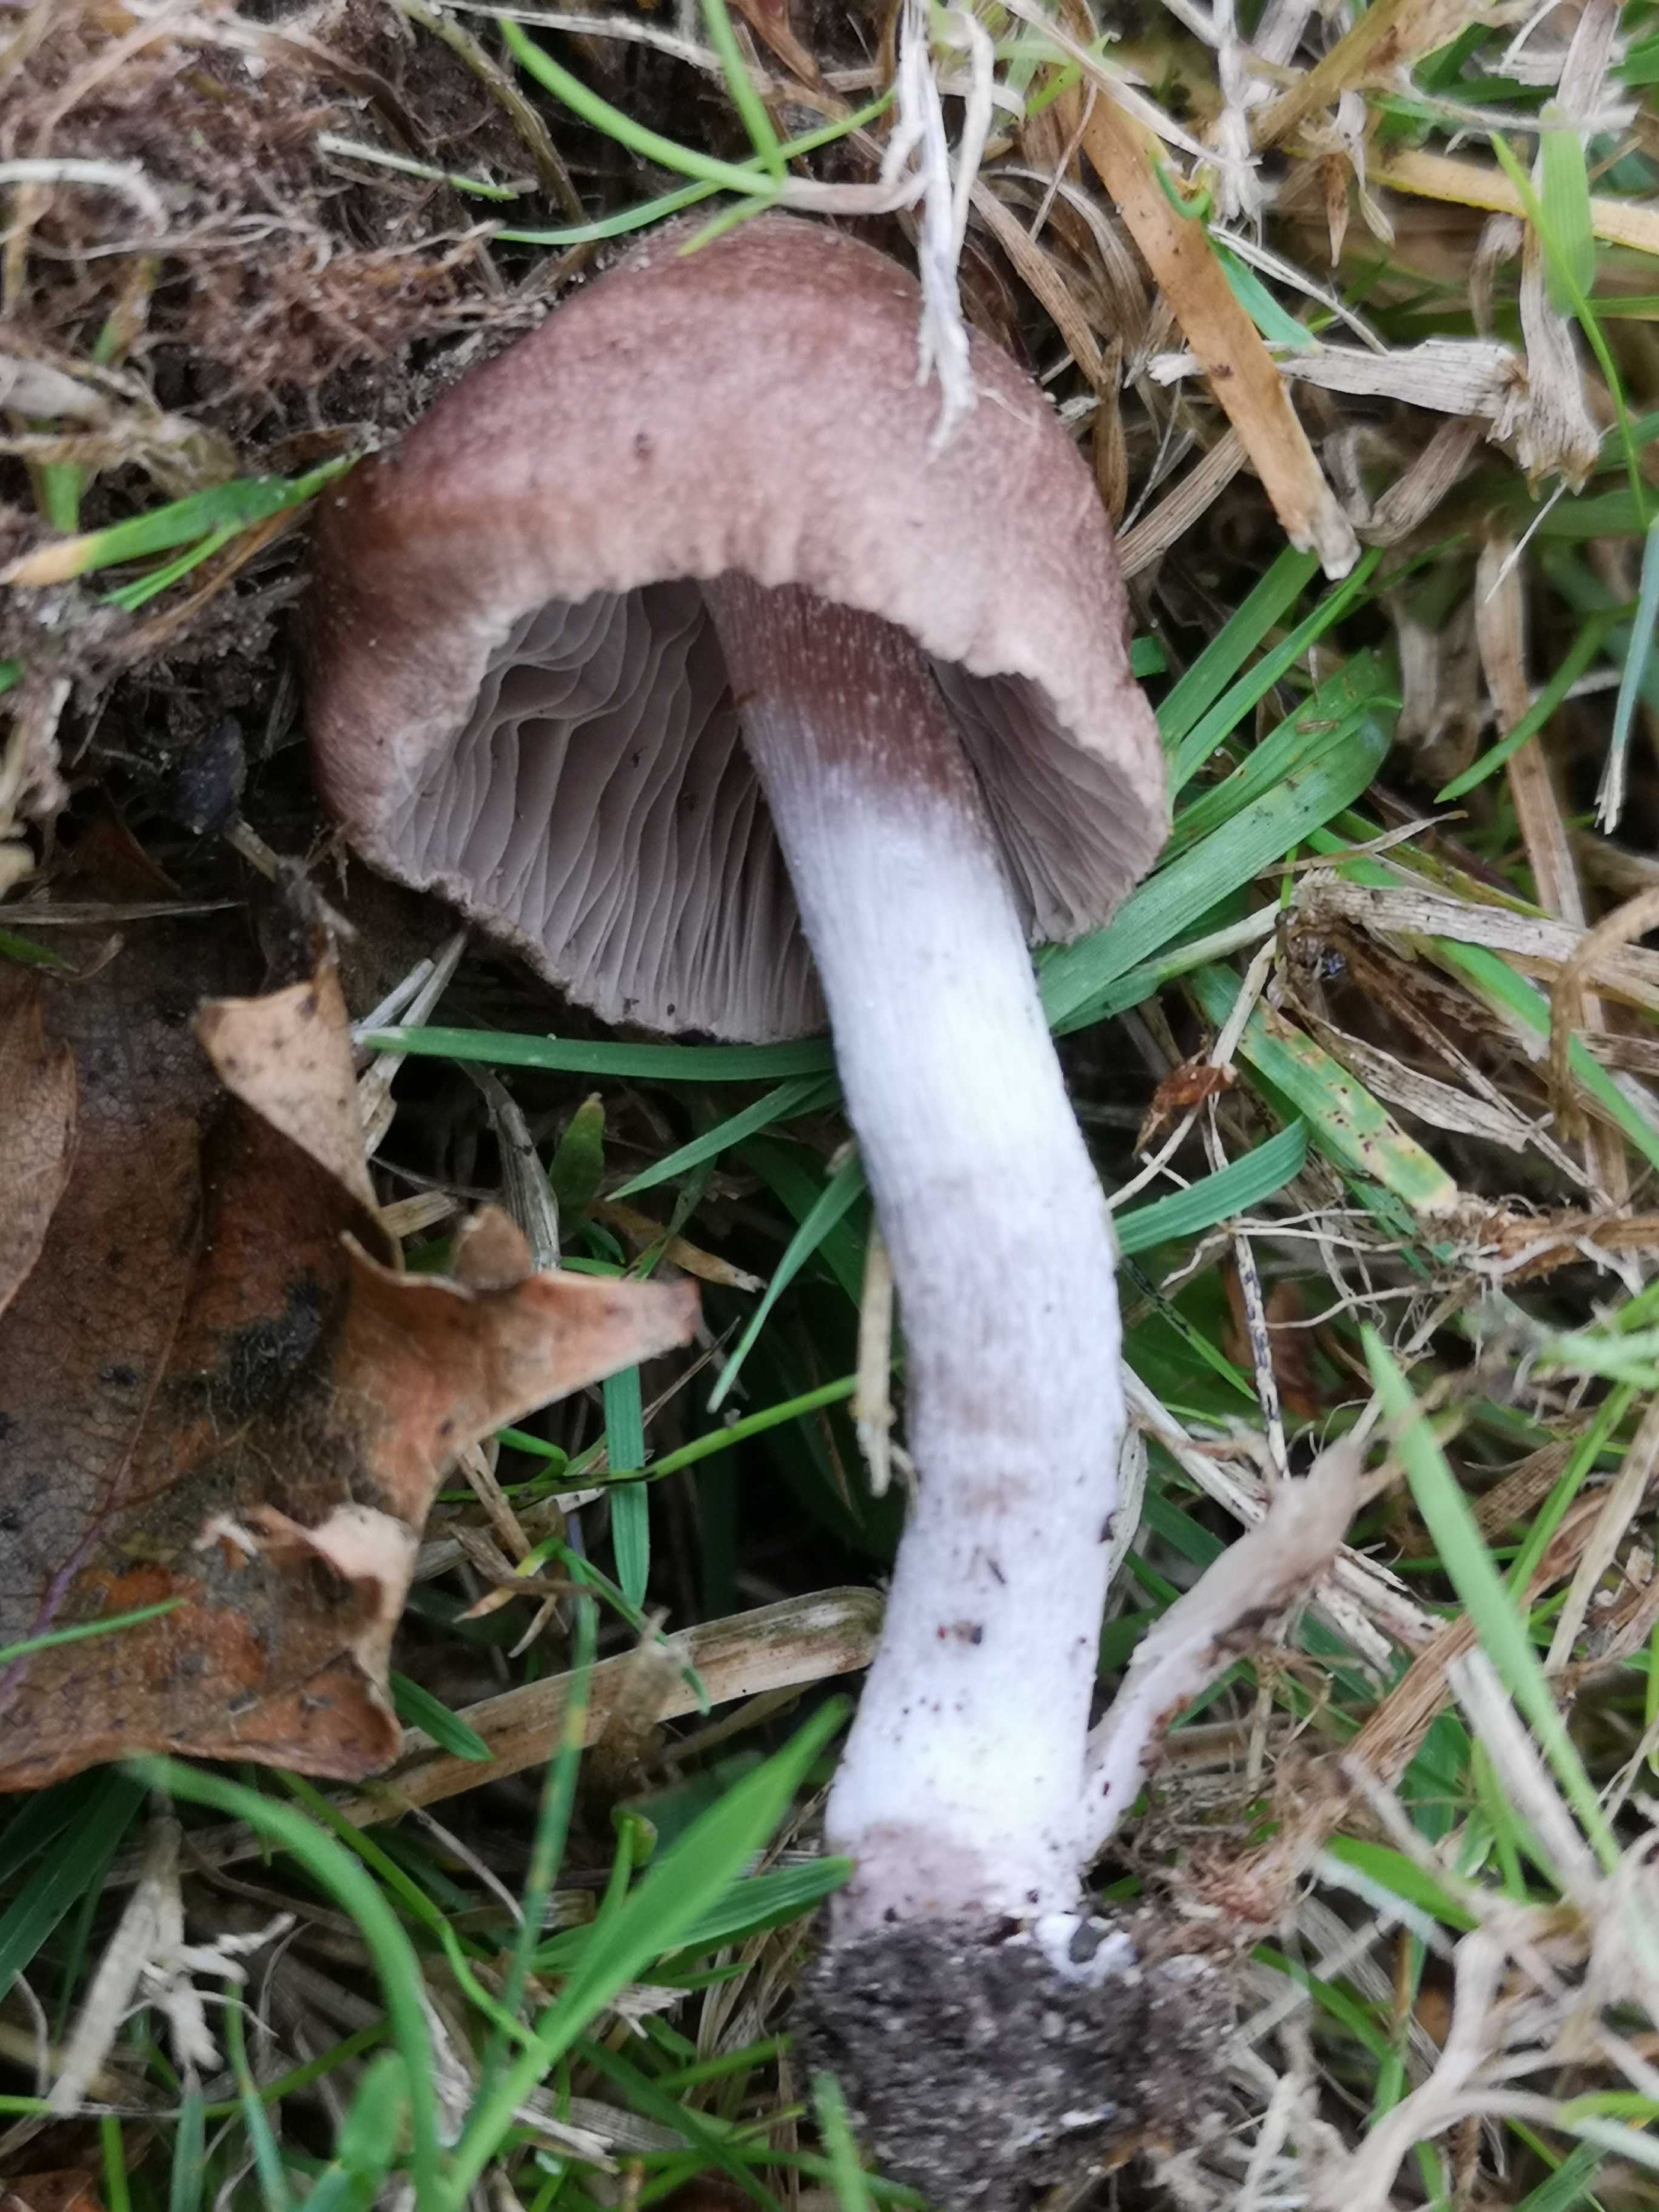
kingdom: Fungi
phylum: Basidiomycota
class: Agaricomycetes
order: Agaricales
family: Inocybaceae
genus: Inocybe
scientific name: Inocybe
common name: trævlhat
